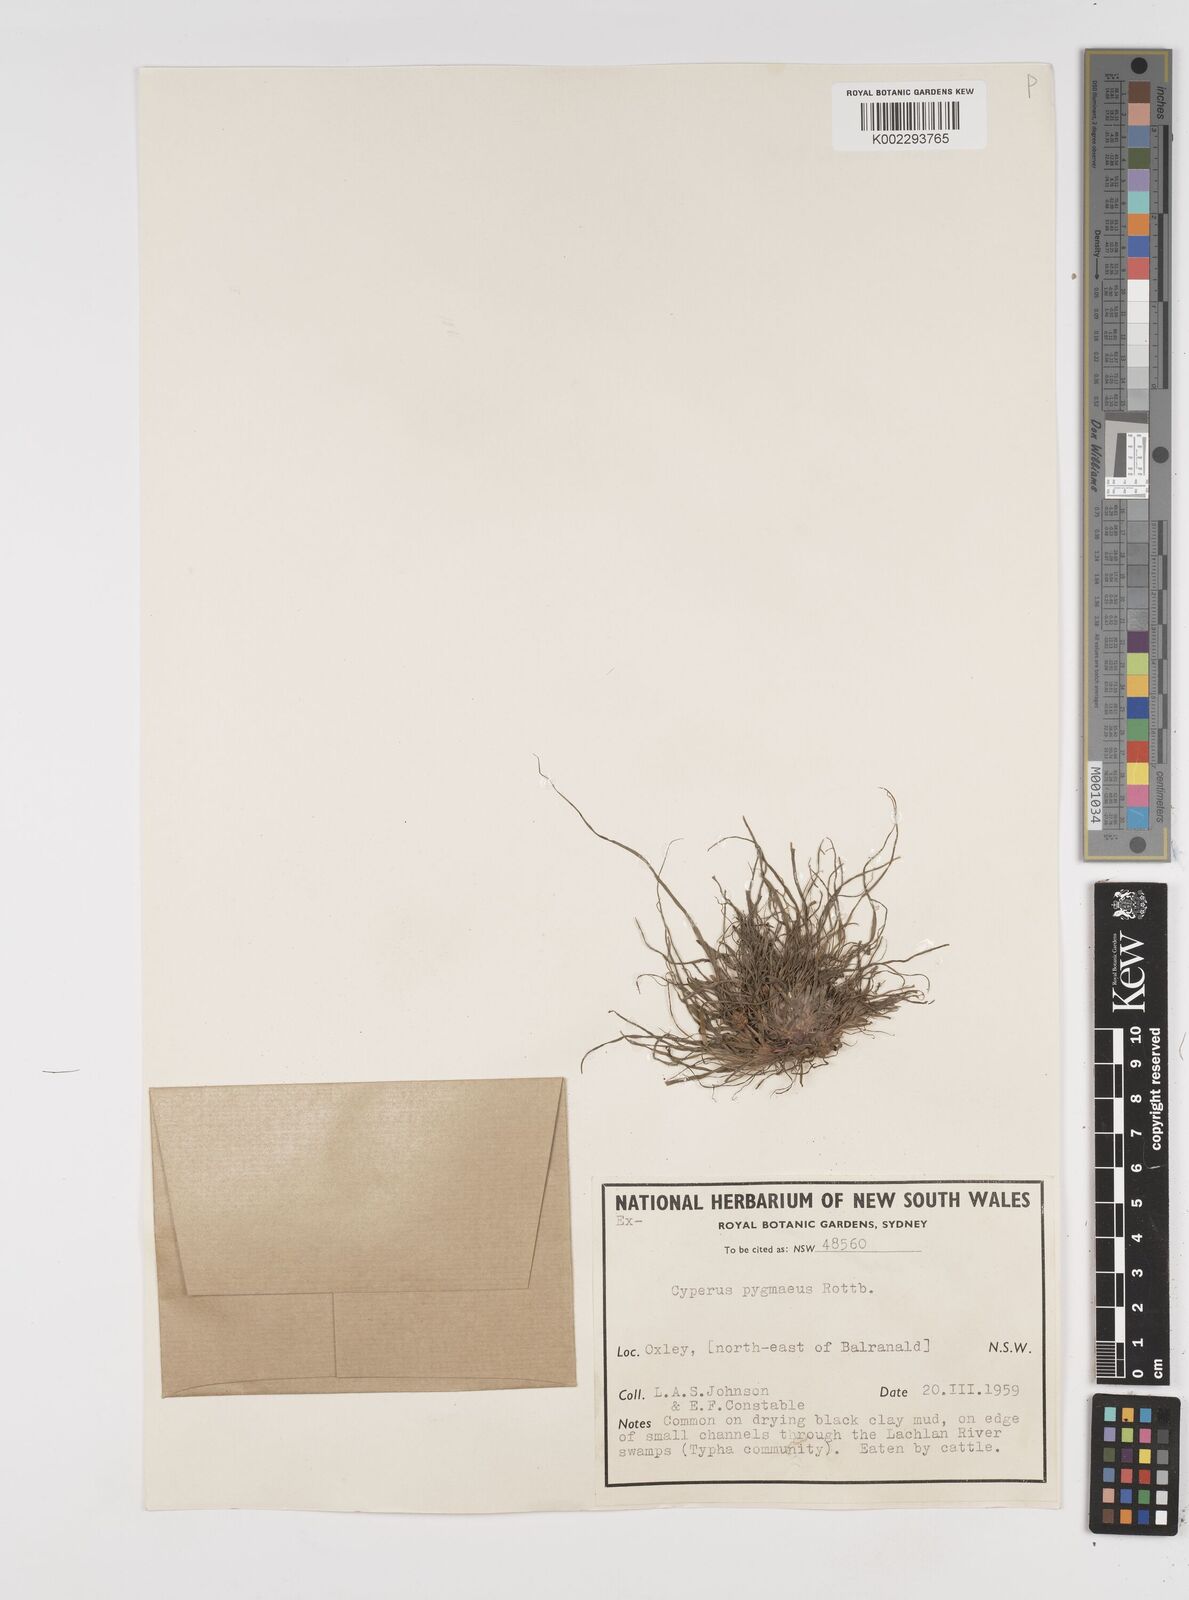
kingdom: Plantae
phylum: Tracheophyta
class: Liliopsida
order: Poales
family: Cyperaceae
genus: Cyperus
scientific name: Cyperus michelianus
